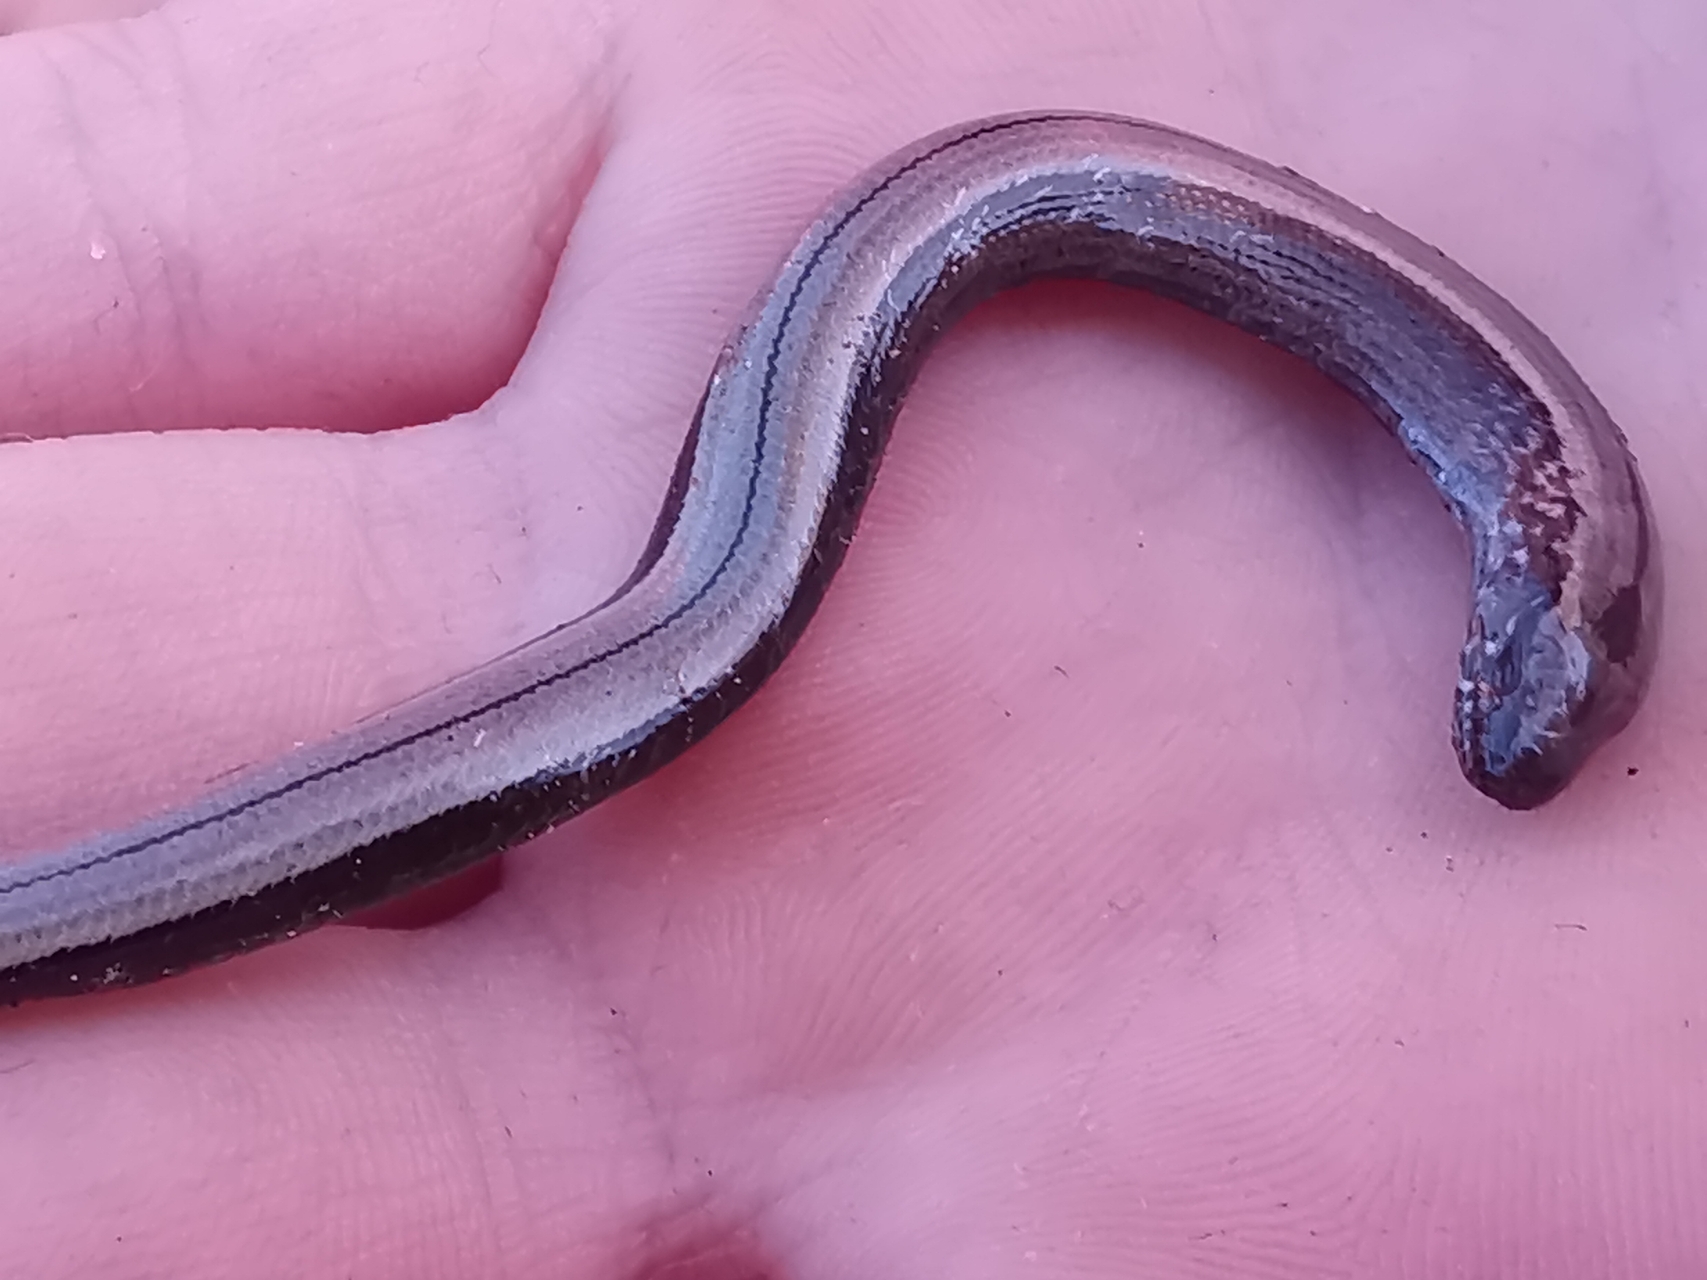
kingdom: Animalia
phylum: Chordata
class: Squamata
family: Anguidae
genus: Anguis
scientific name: Anguis fragilis
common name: Stålorm
